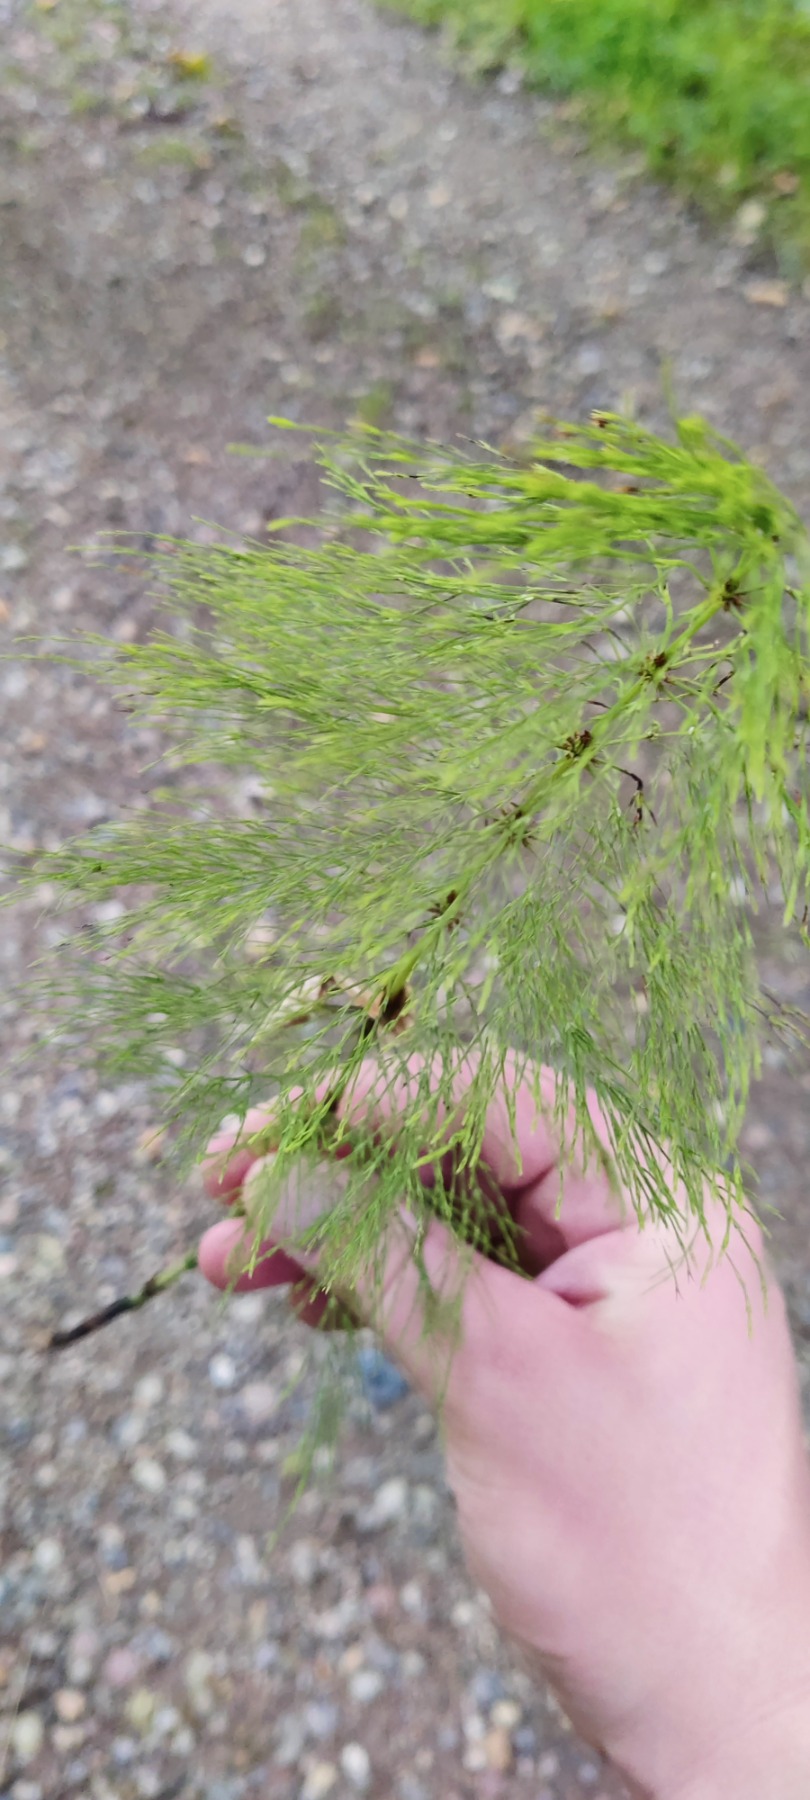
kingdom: Plantae
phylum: Tracheophyta
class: Polypodiopsida
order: Equisetales
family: Equisetaceae
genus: Equisetum
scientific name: Equisetum sylvaticum
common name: Skov-padderok
